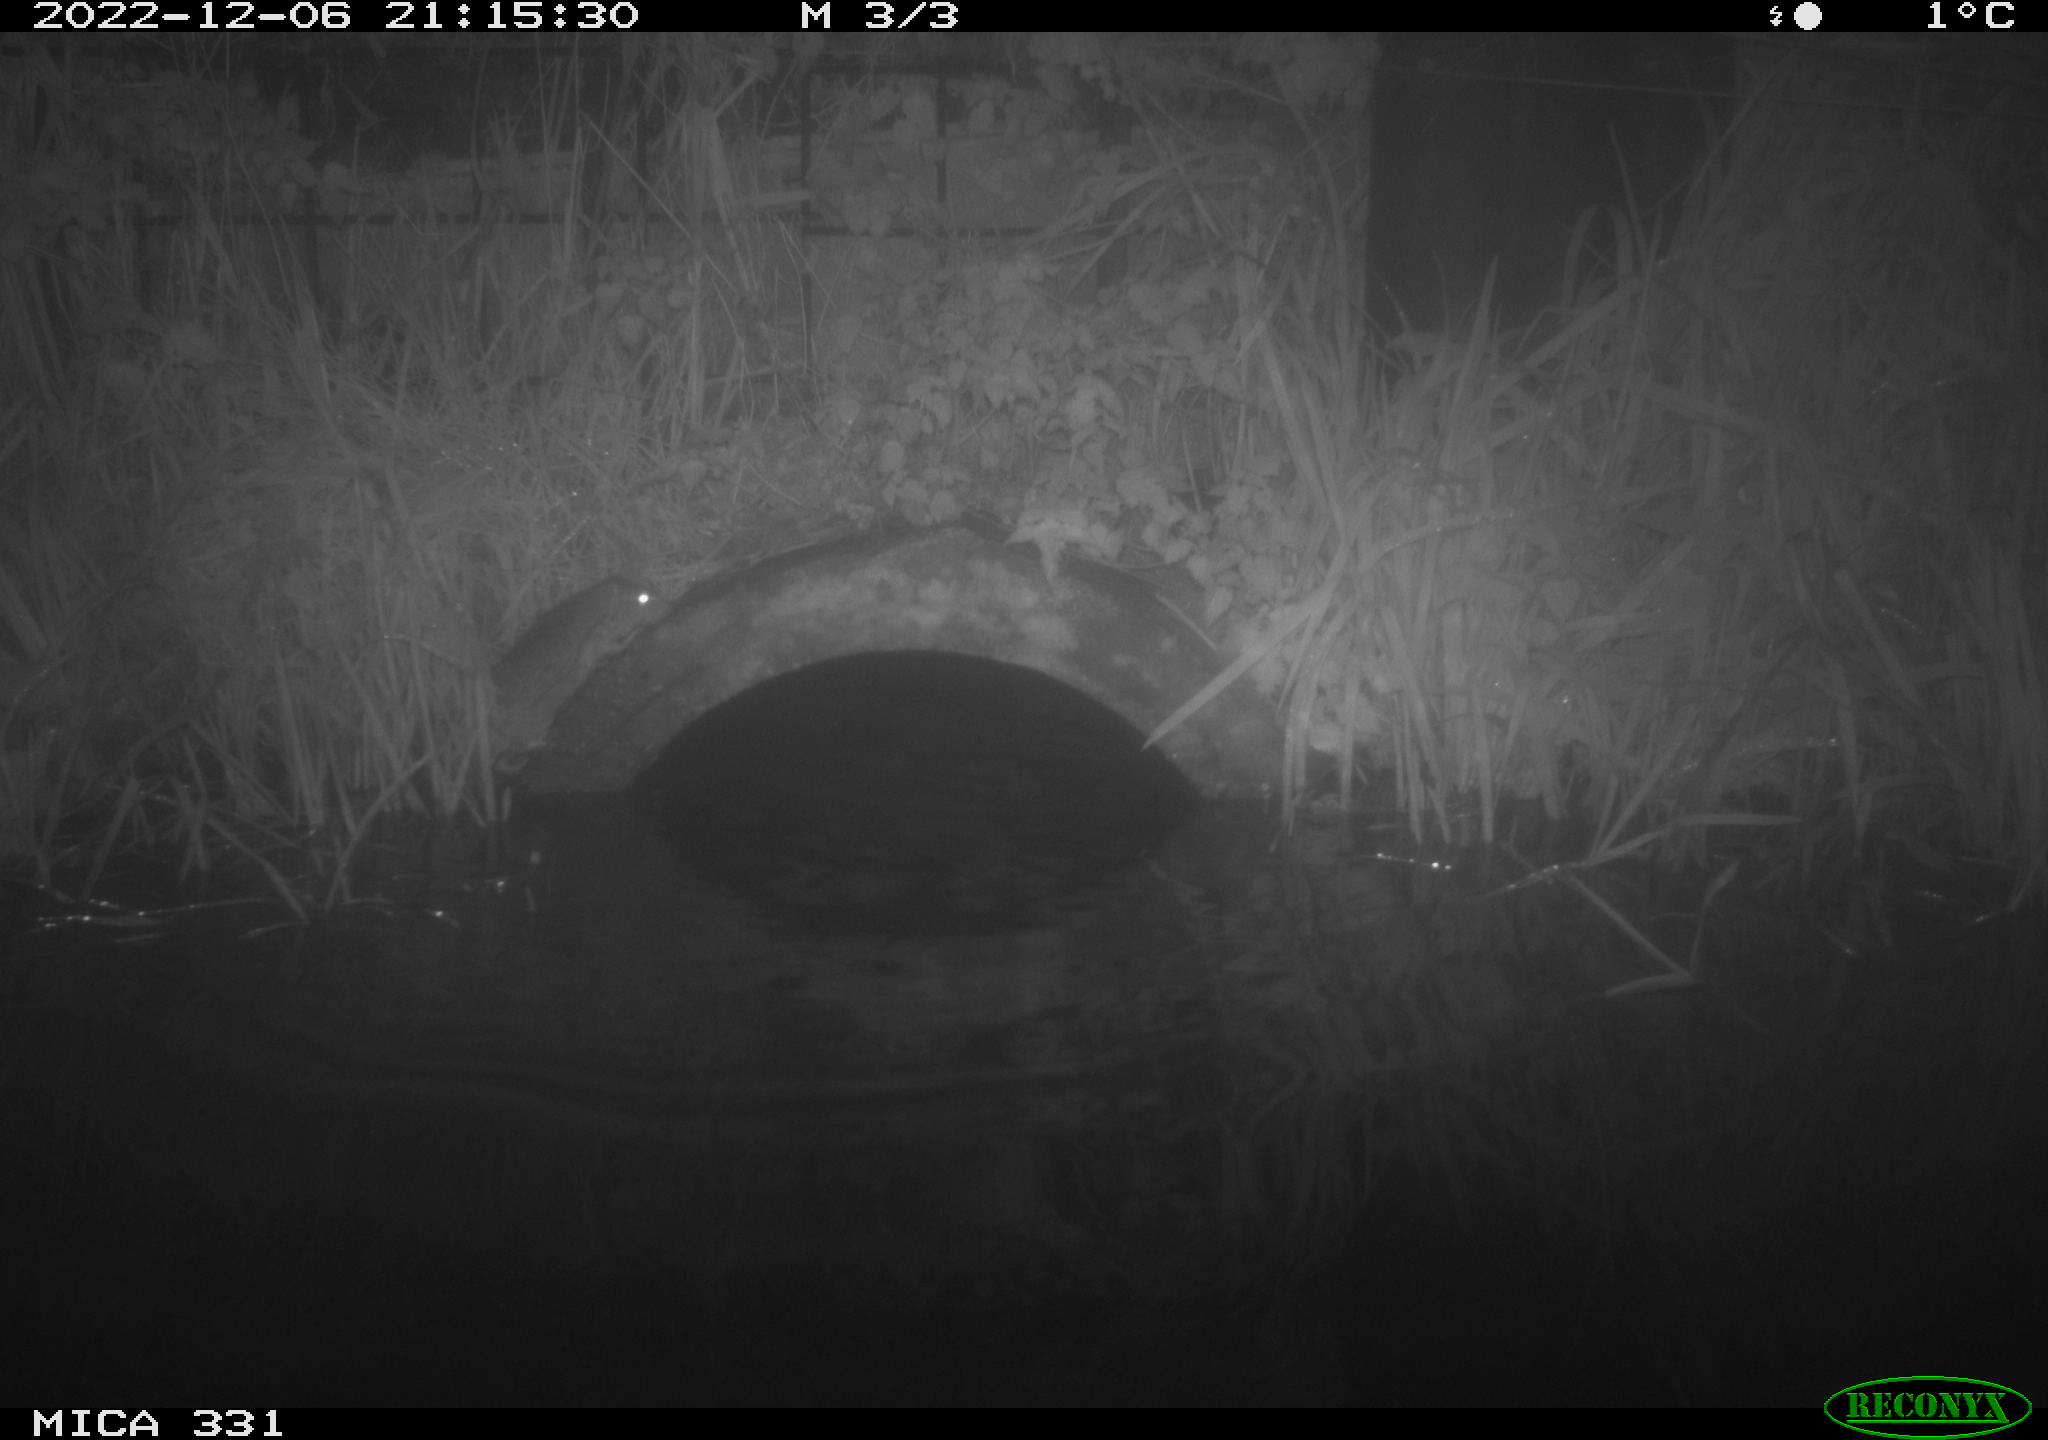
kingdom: Animalia
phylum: Chordata
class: Mammalia
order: Rodentia
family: Muridae
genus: Rattus
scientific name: Rattus norvegicus
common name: Brown rat
